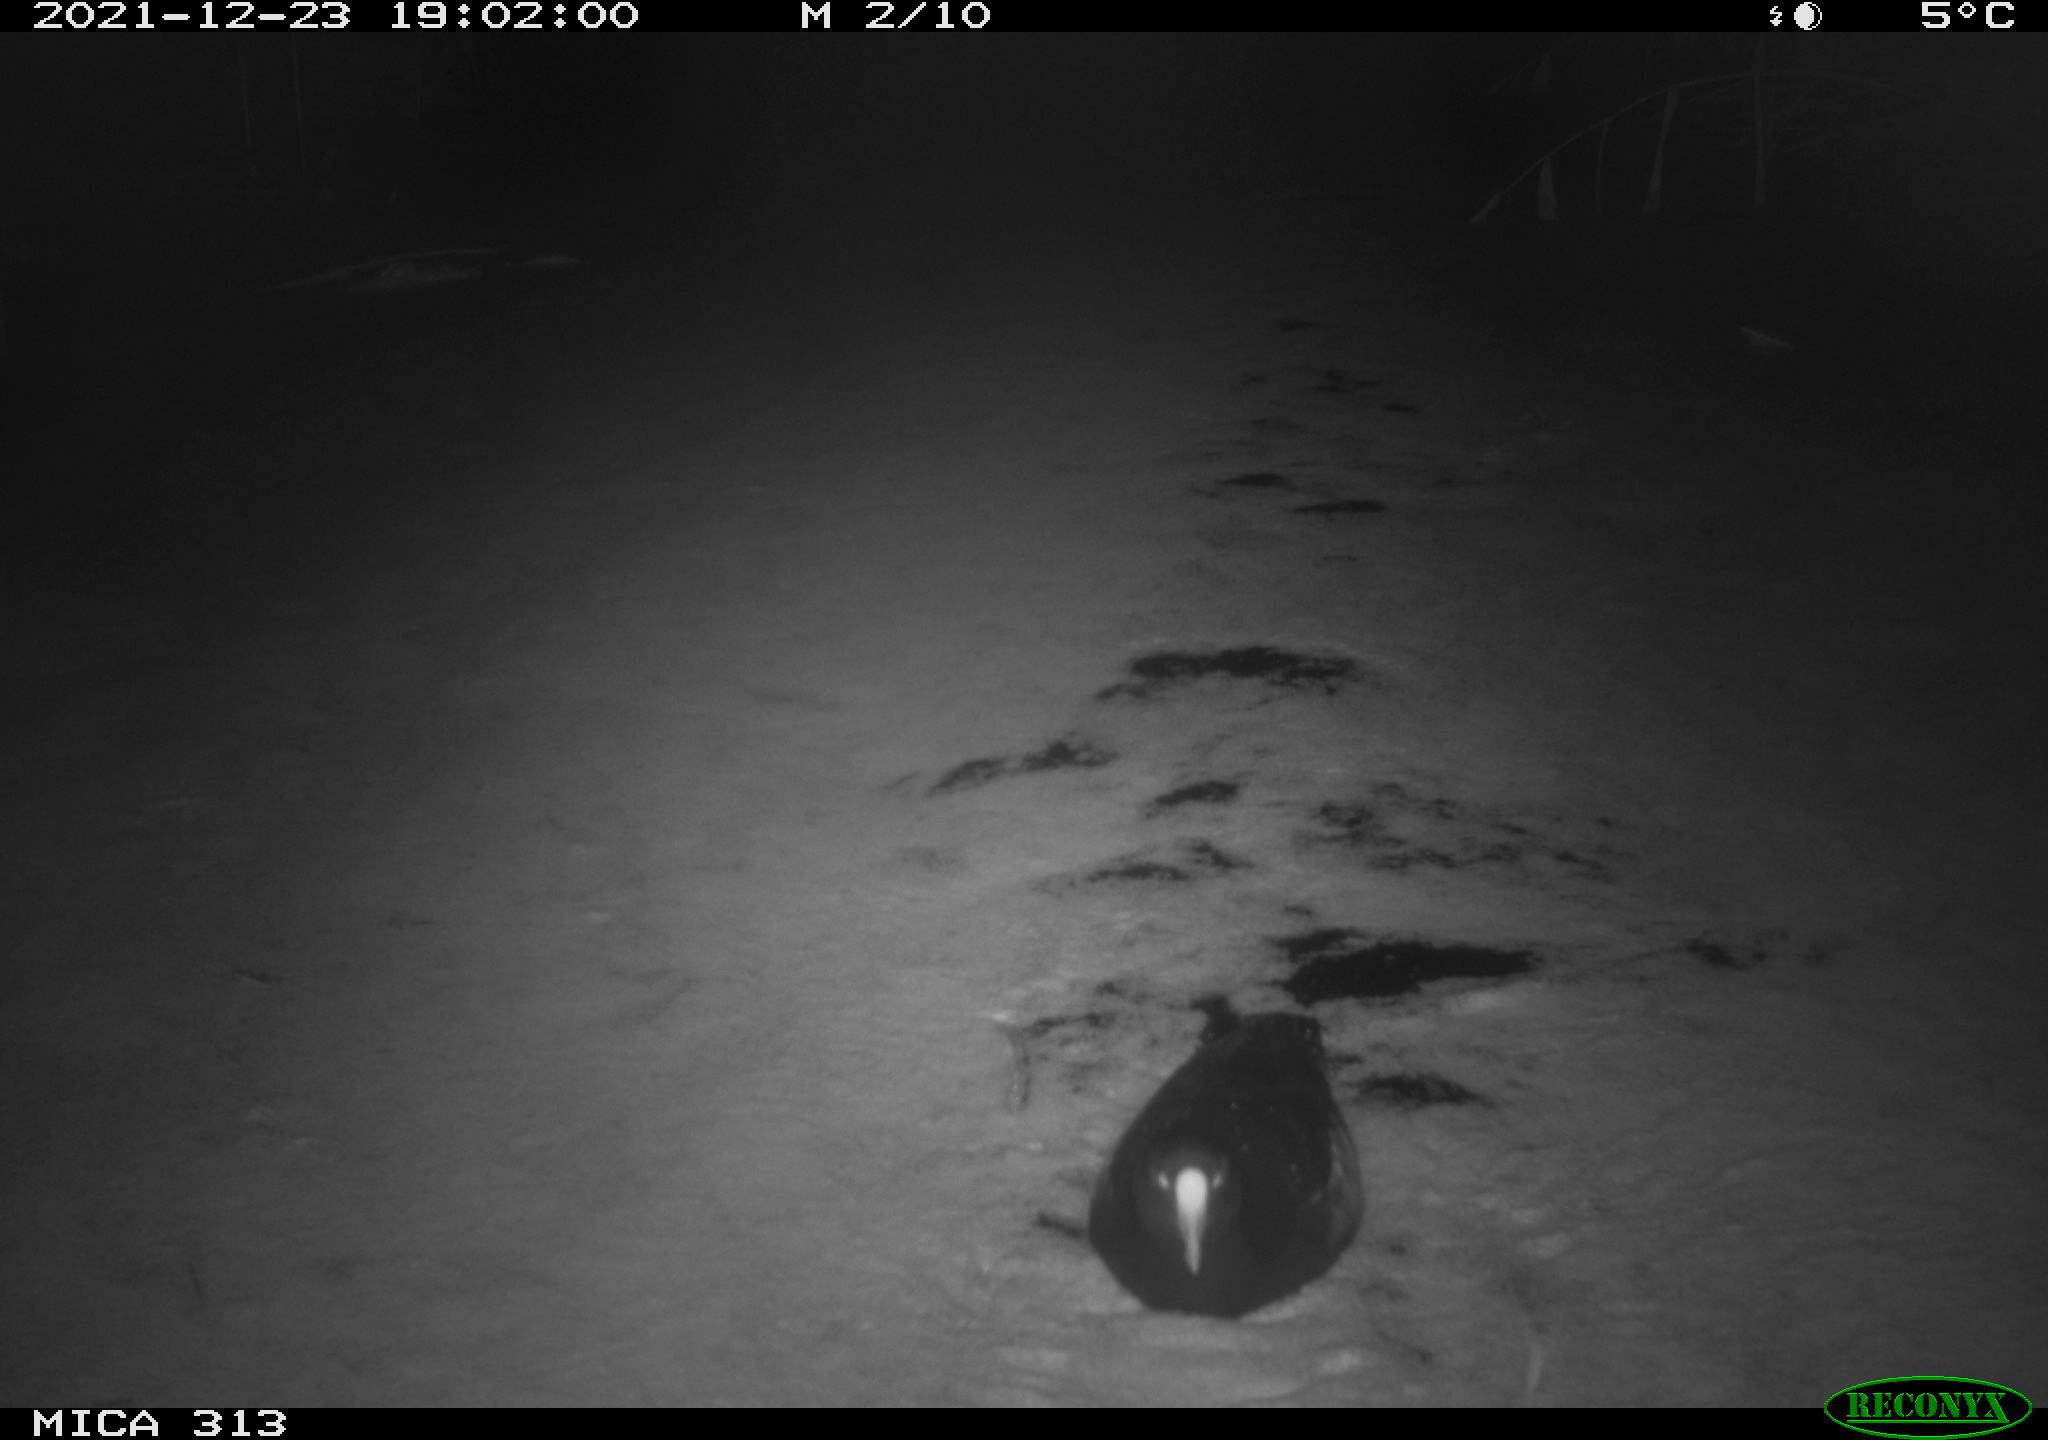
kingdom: Animalia
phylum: Chordata
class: Aves
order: Gruiformes
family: Rallidae
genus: Fulica
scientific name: Fulica atra
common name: Eurasian coot
